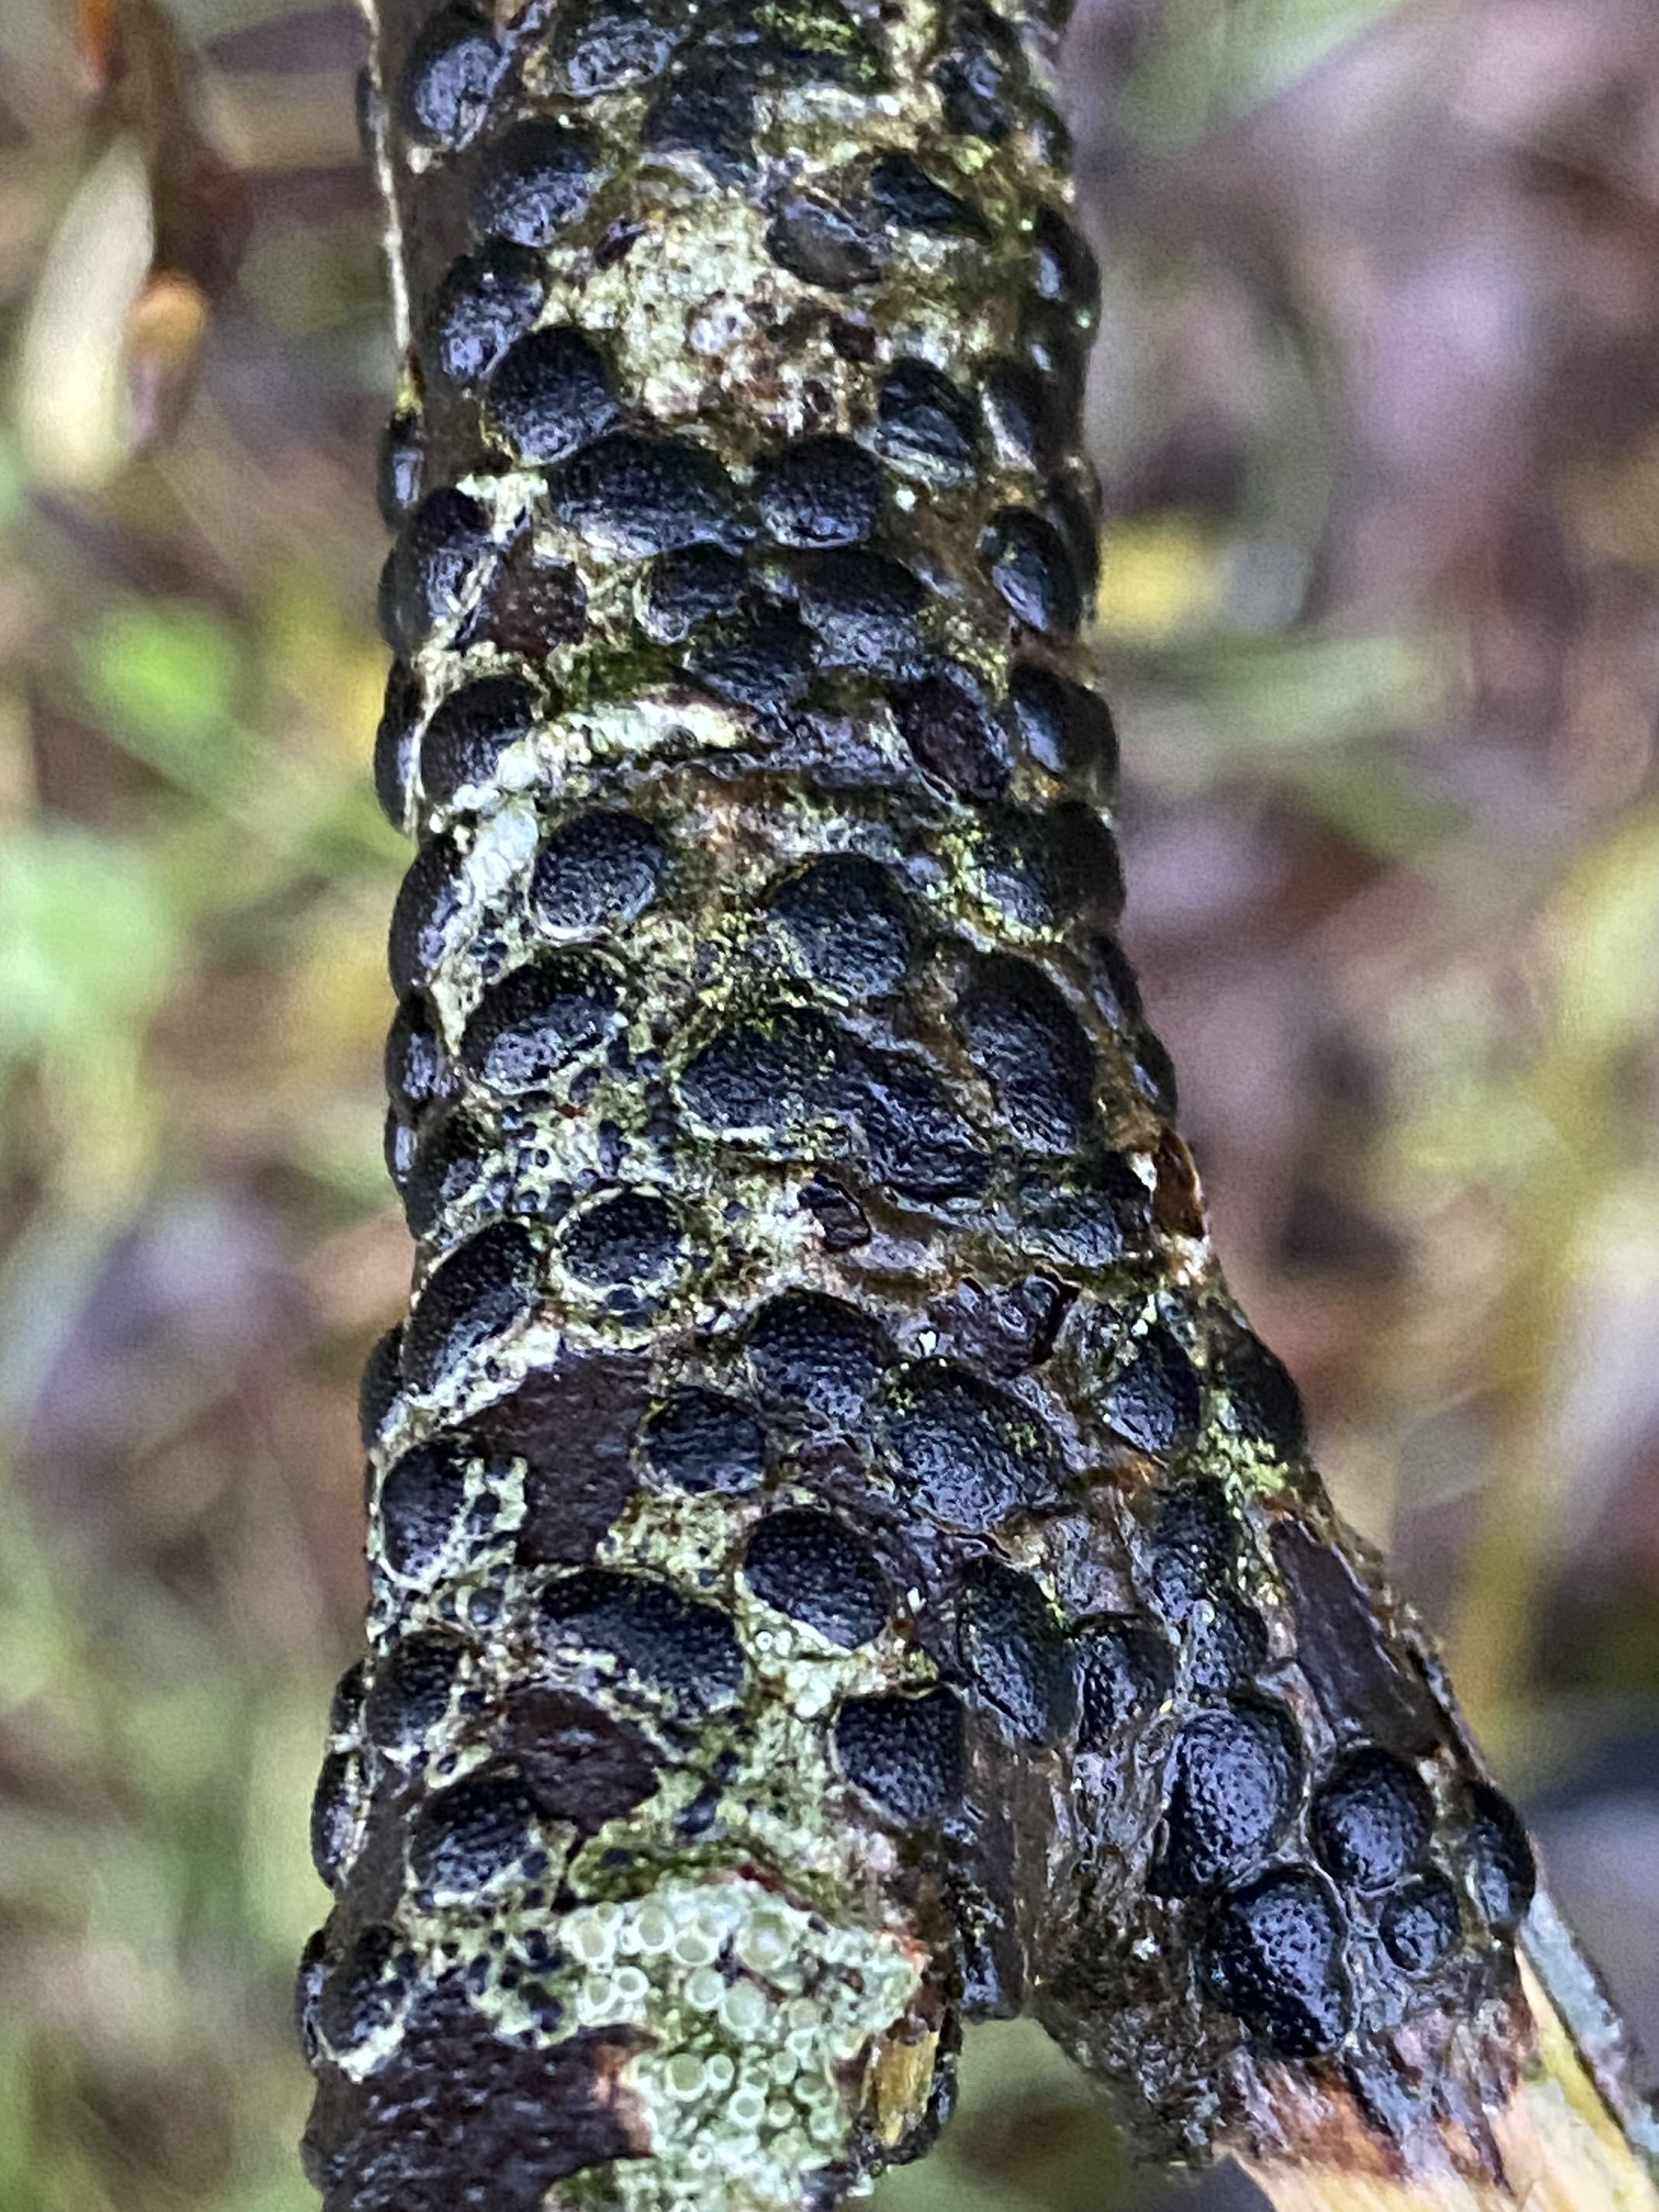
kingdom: Fungi
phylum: Ascomycota
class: Sordariomycetes
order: Xylariales
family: Diatrypaceae
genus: Diatrype
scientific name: Diatrype bullata
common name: pile-kulskorpe
